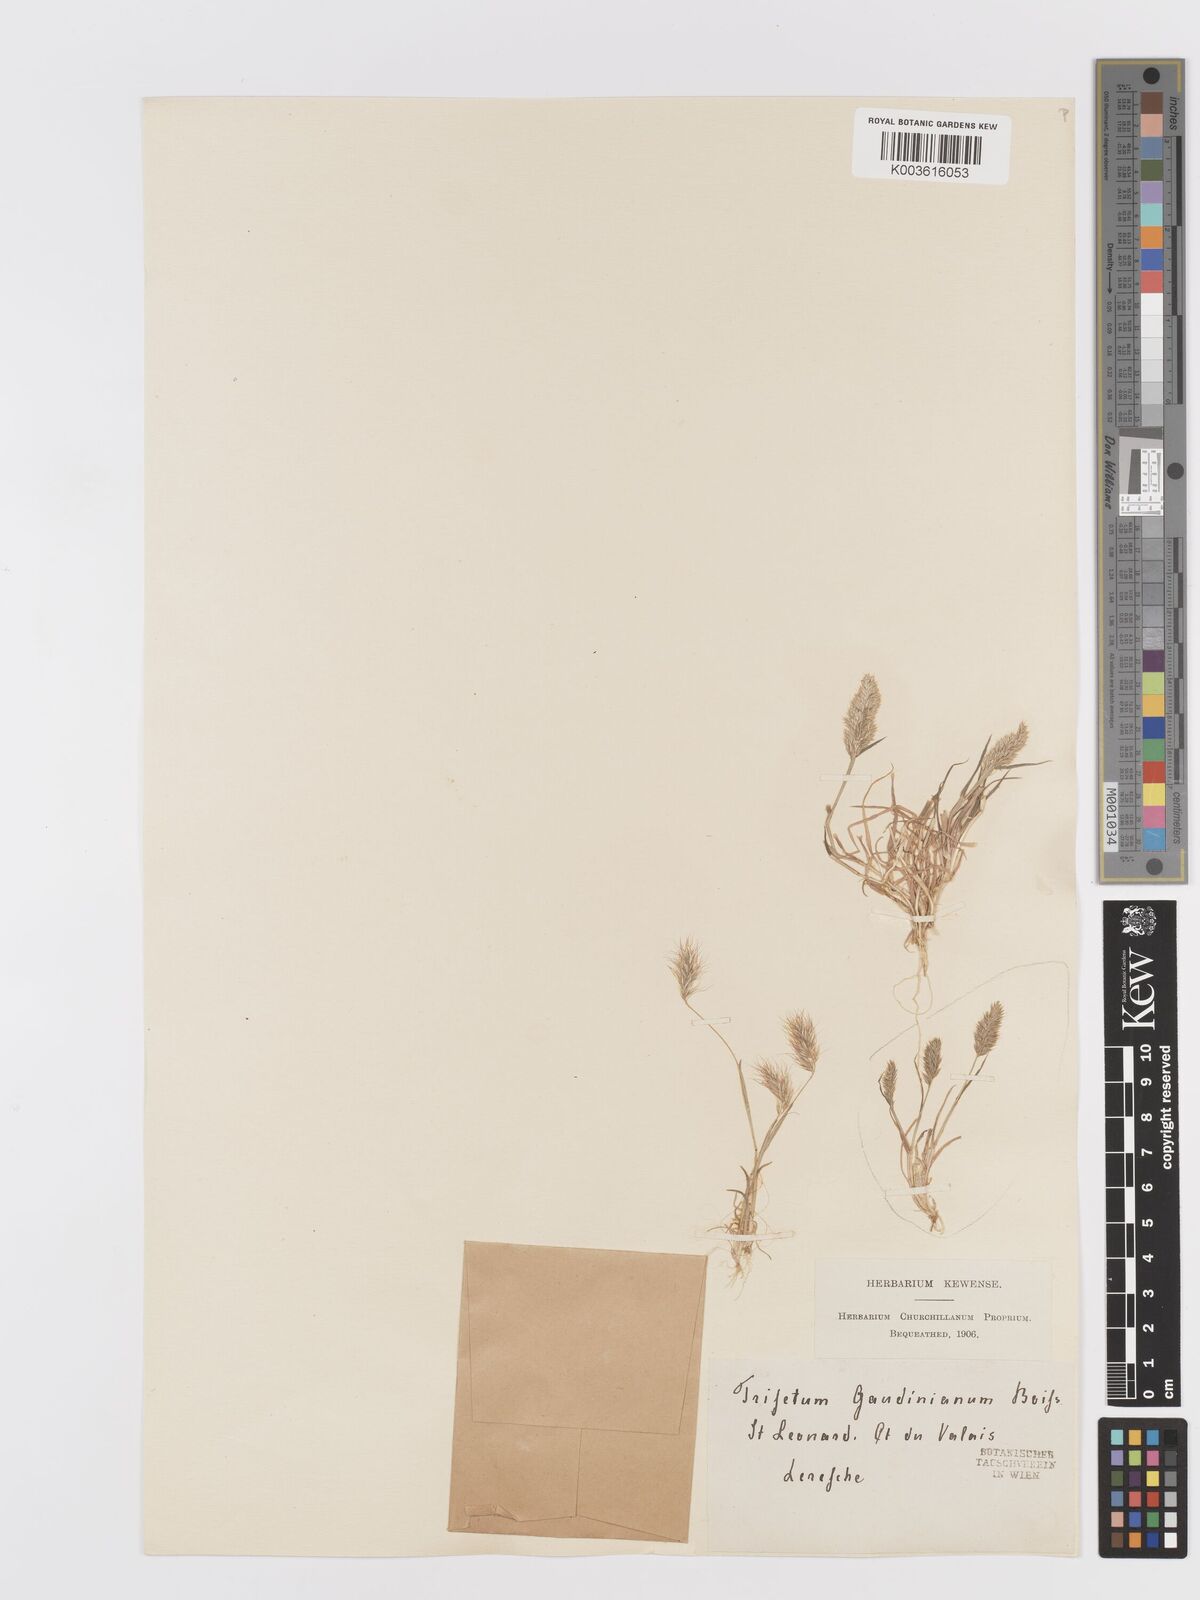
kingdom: Plantae
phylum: Tracheophyta
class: Liliopsida
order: Poales
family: Poaceae
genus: Trisetaria
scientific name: Trisetaria loeflingiana
